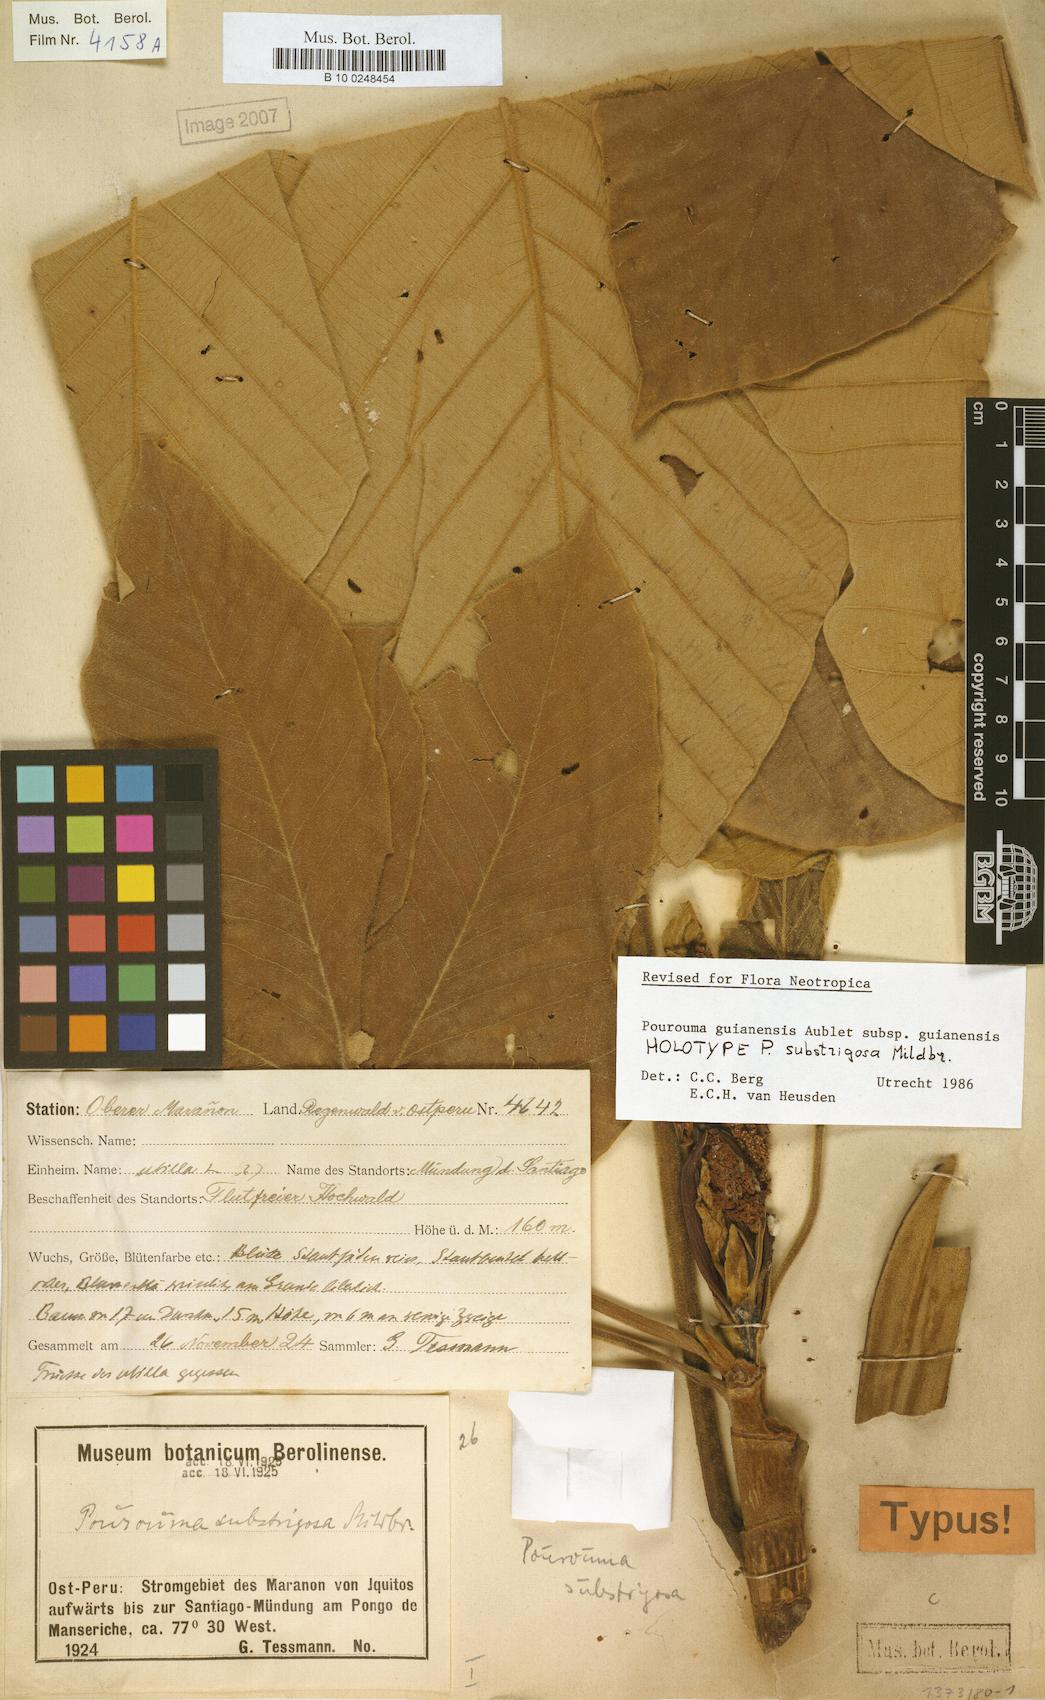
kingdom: Plantae
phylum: Tracheophyta
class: Magnoliopsida
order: Rosales
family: Urticaceae
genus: Pourouma
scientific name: Pourouma guianensis
